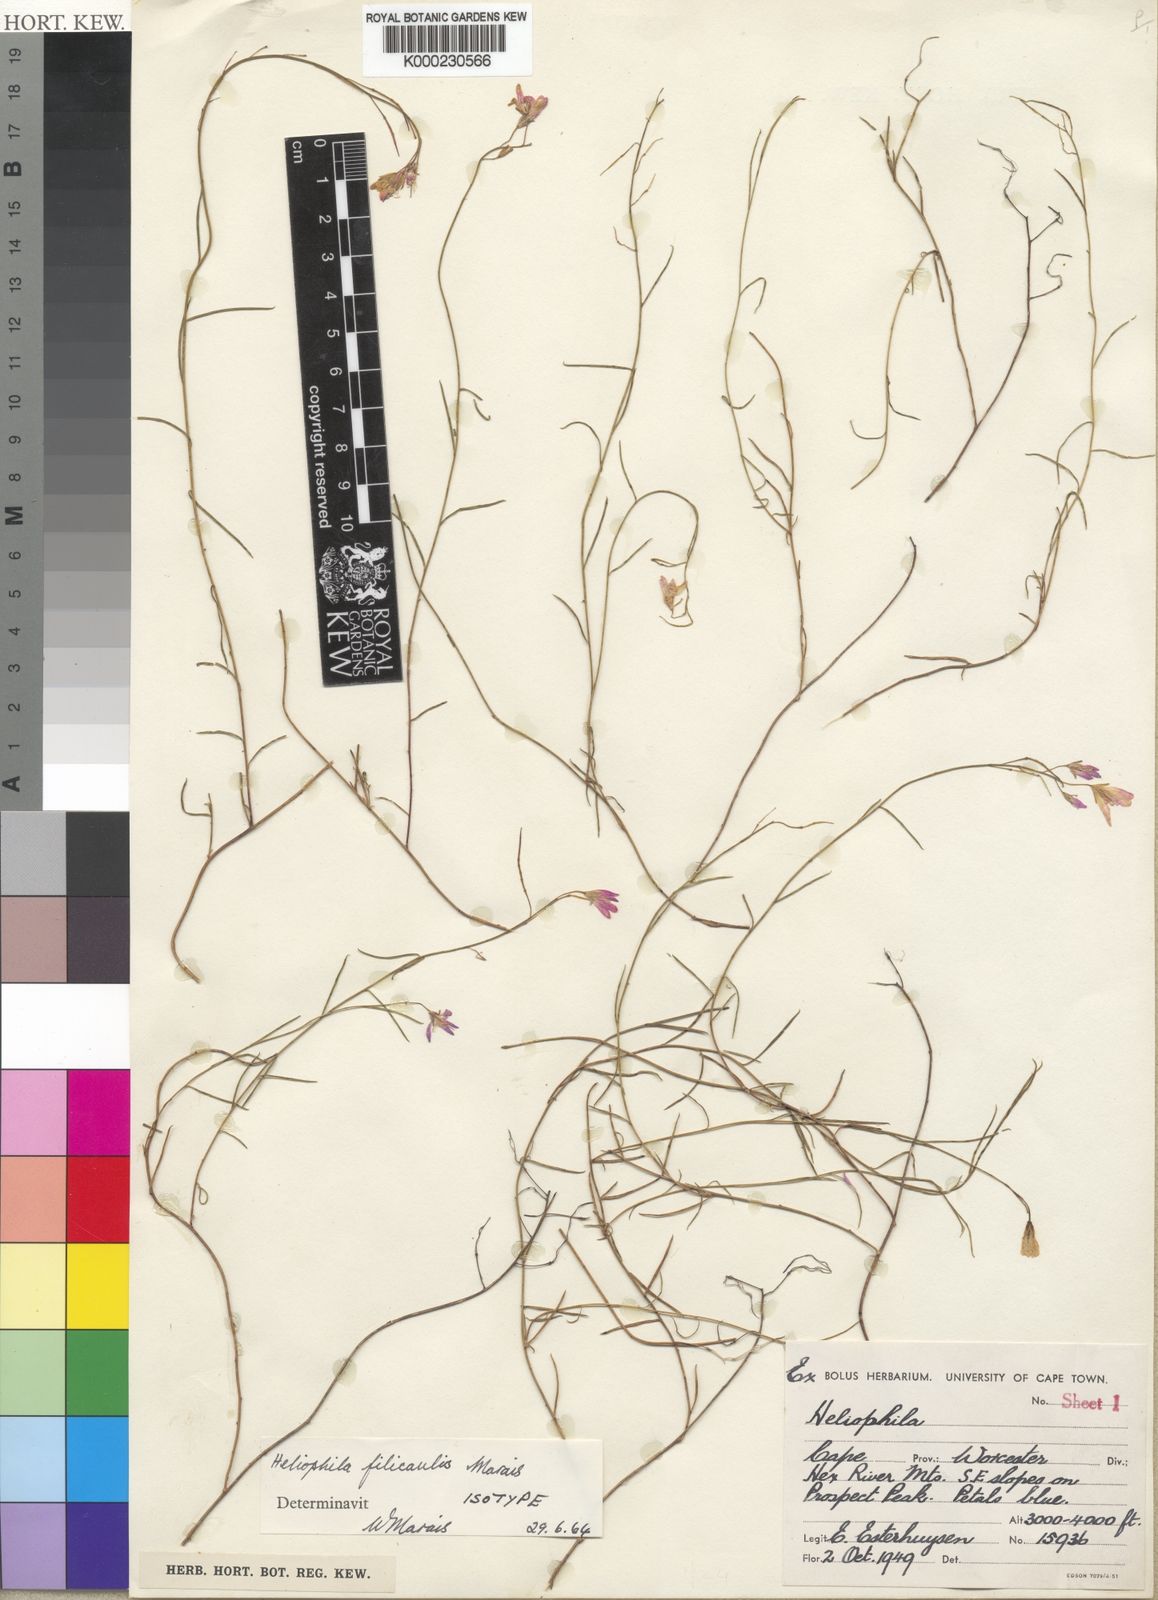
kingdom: Plantae
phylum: Tracheophyta
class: Magnoliopsida
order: Brassicales
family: Brassicaceae
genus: Heliophila
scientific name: Heliophila filicaulis
